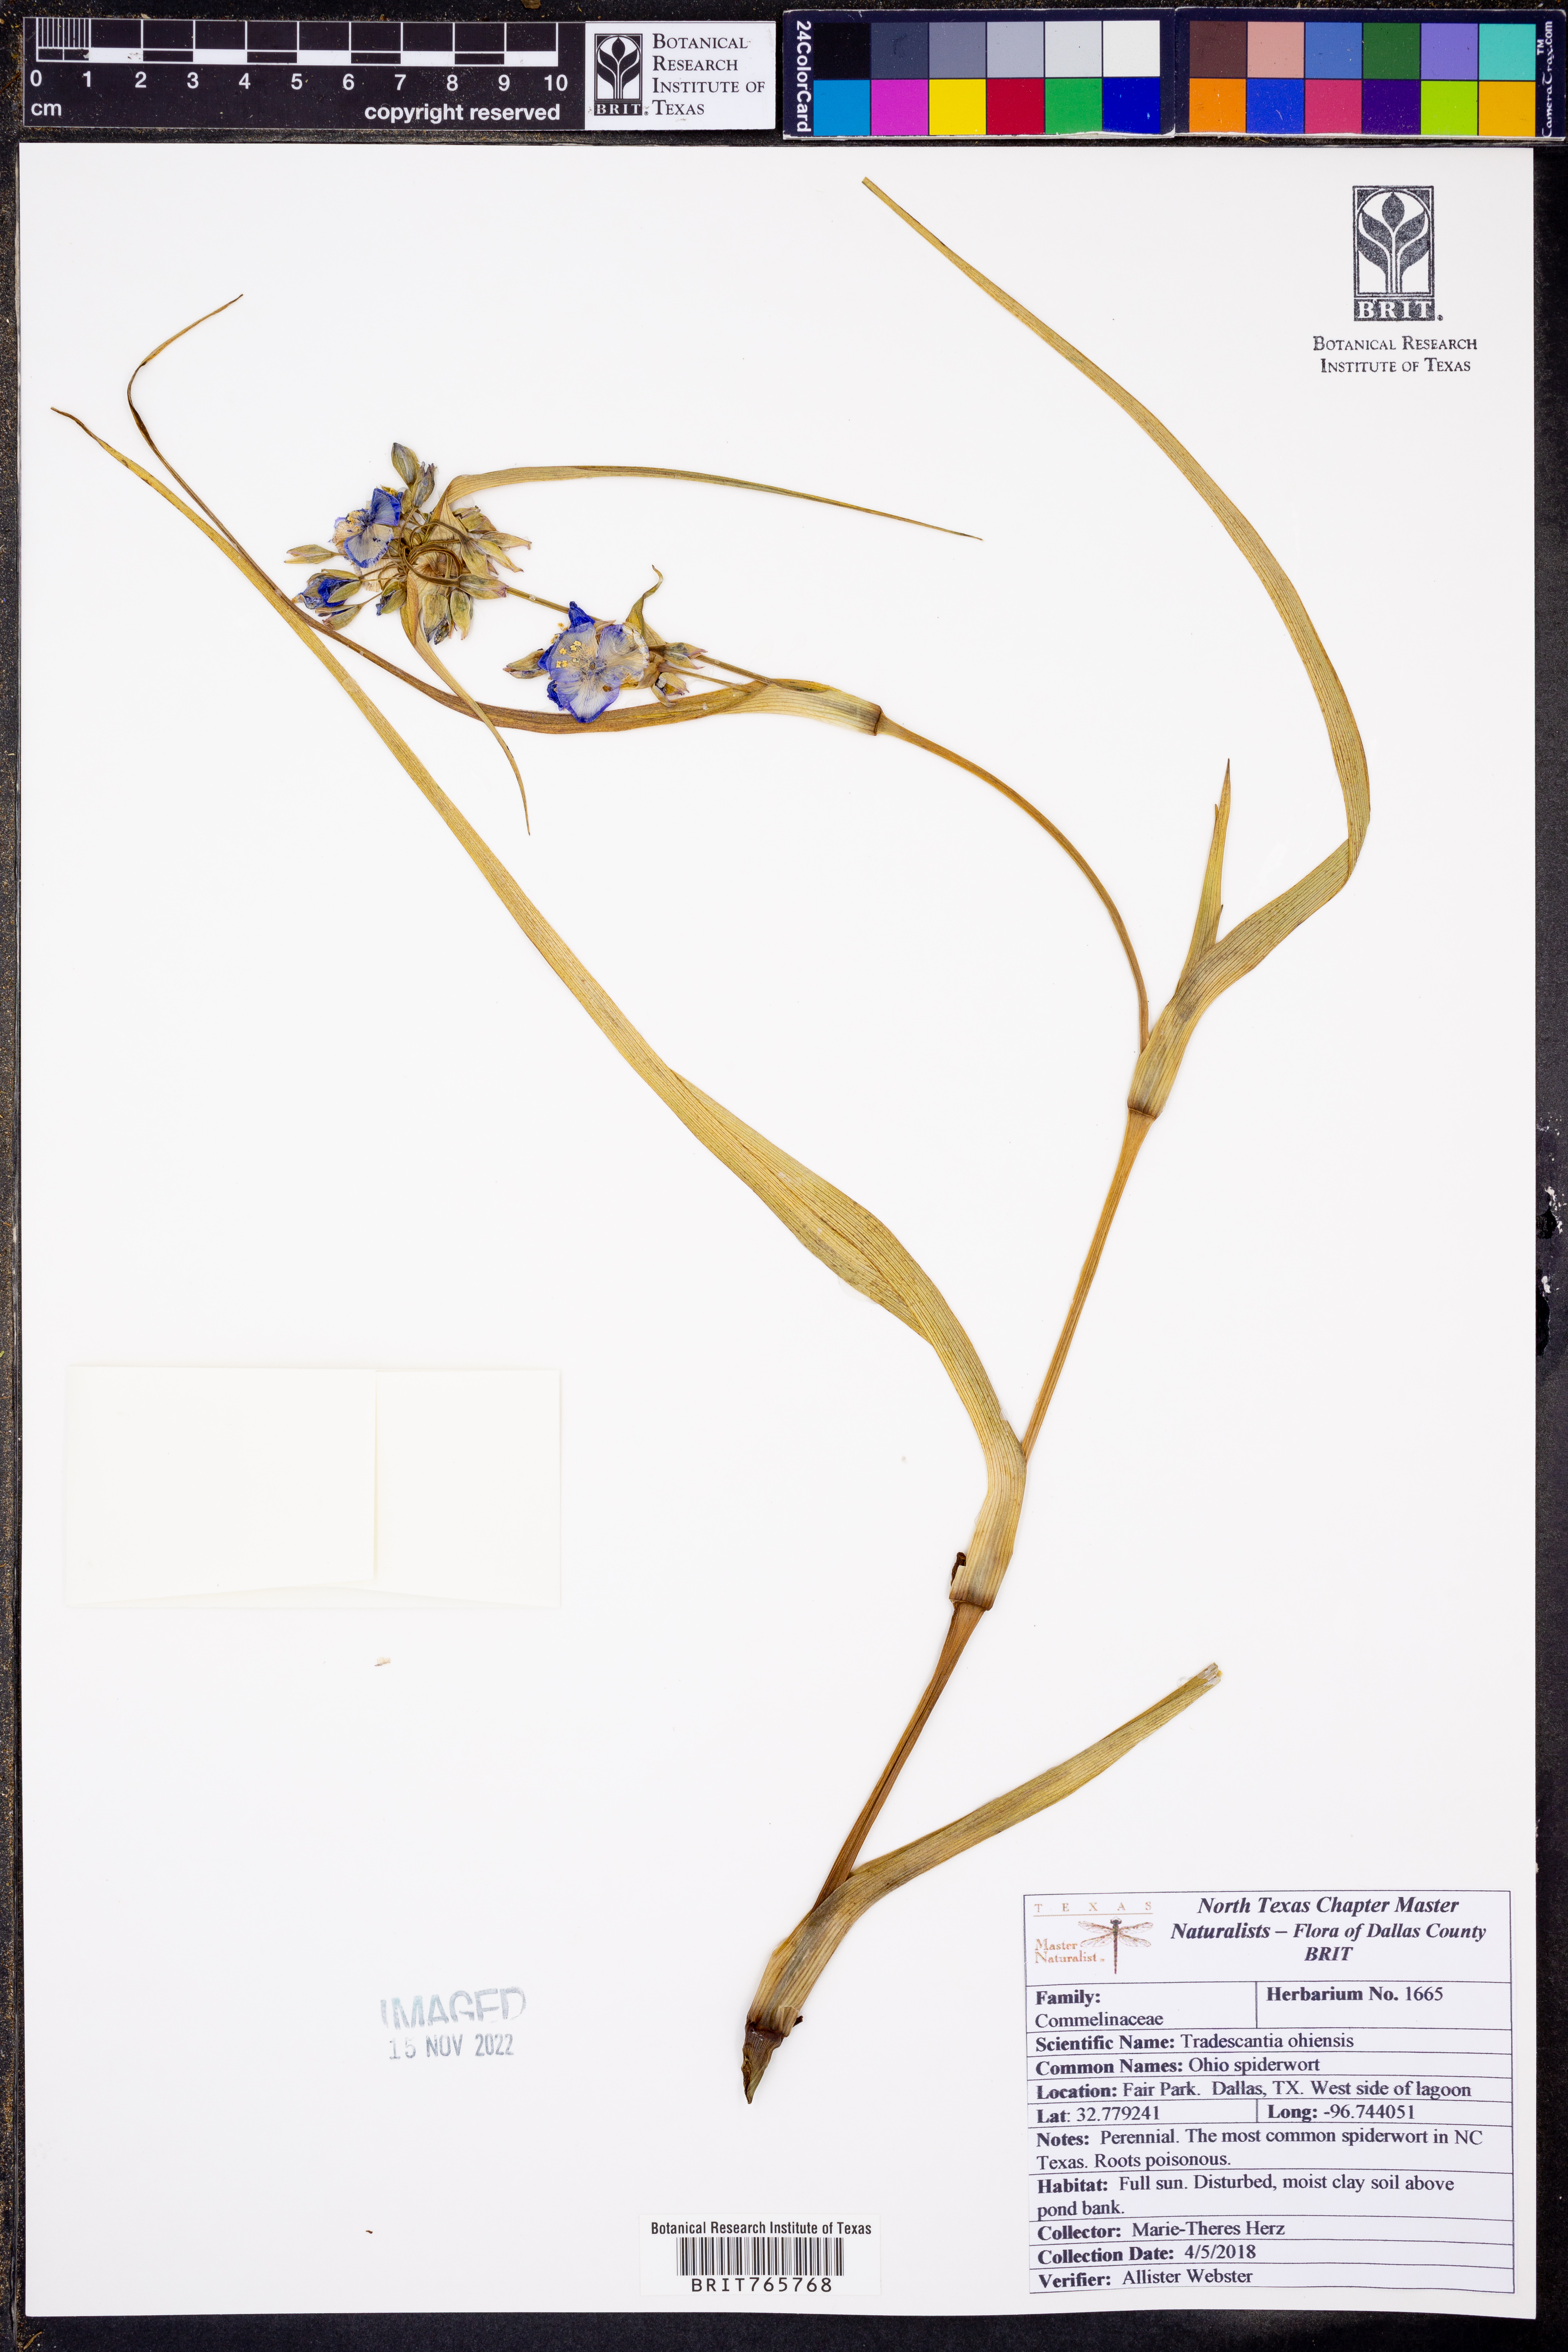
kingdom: Plantae
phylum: Tracheophyta
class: Liliopsida
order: Commelinales
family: Commelinaceae
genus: Tradescantia
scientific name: Tradescantia ohiensis
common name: Ohio spiderwort
